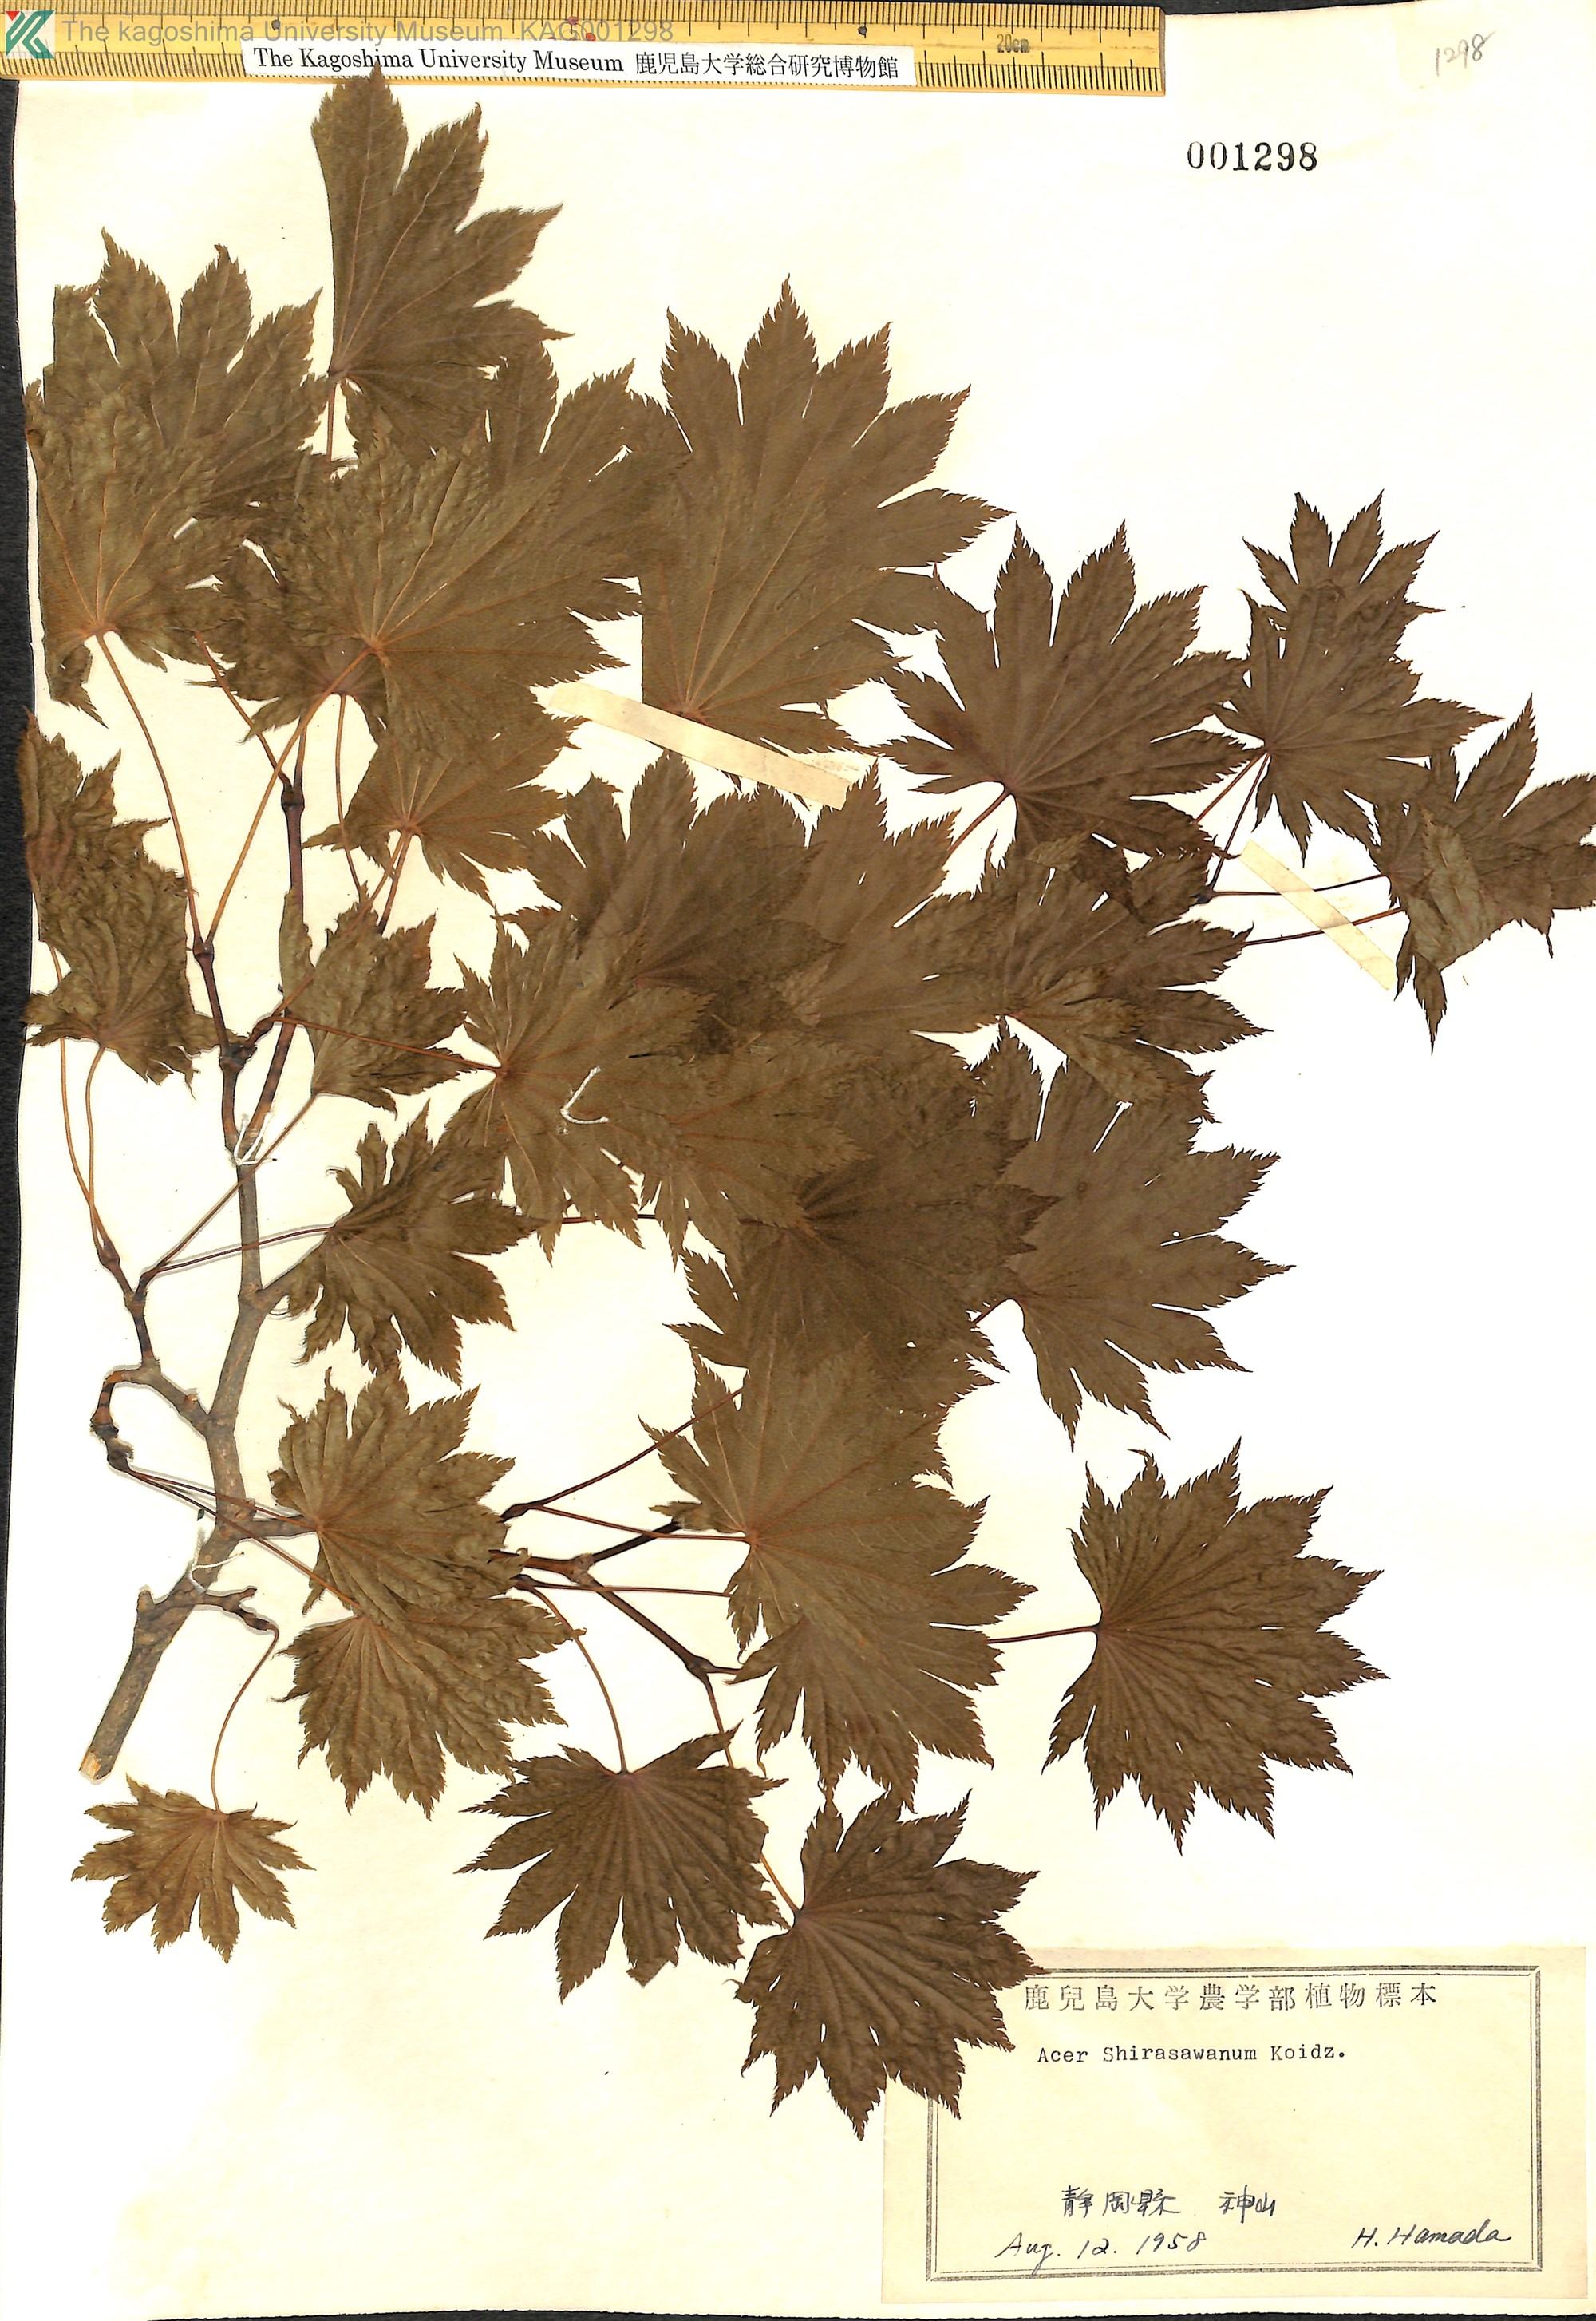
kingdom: Plantae
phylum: Tracheophyta
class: Magnoliopsida
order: Sapindales
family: Sapindaceae
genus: Acer
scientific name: Acer shirasawanum
